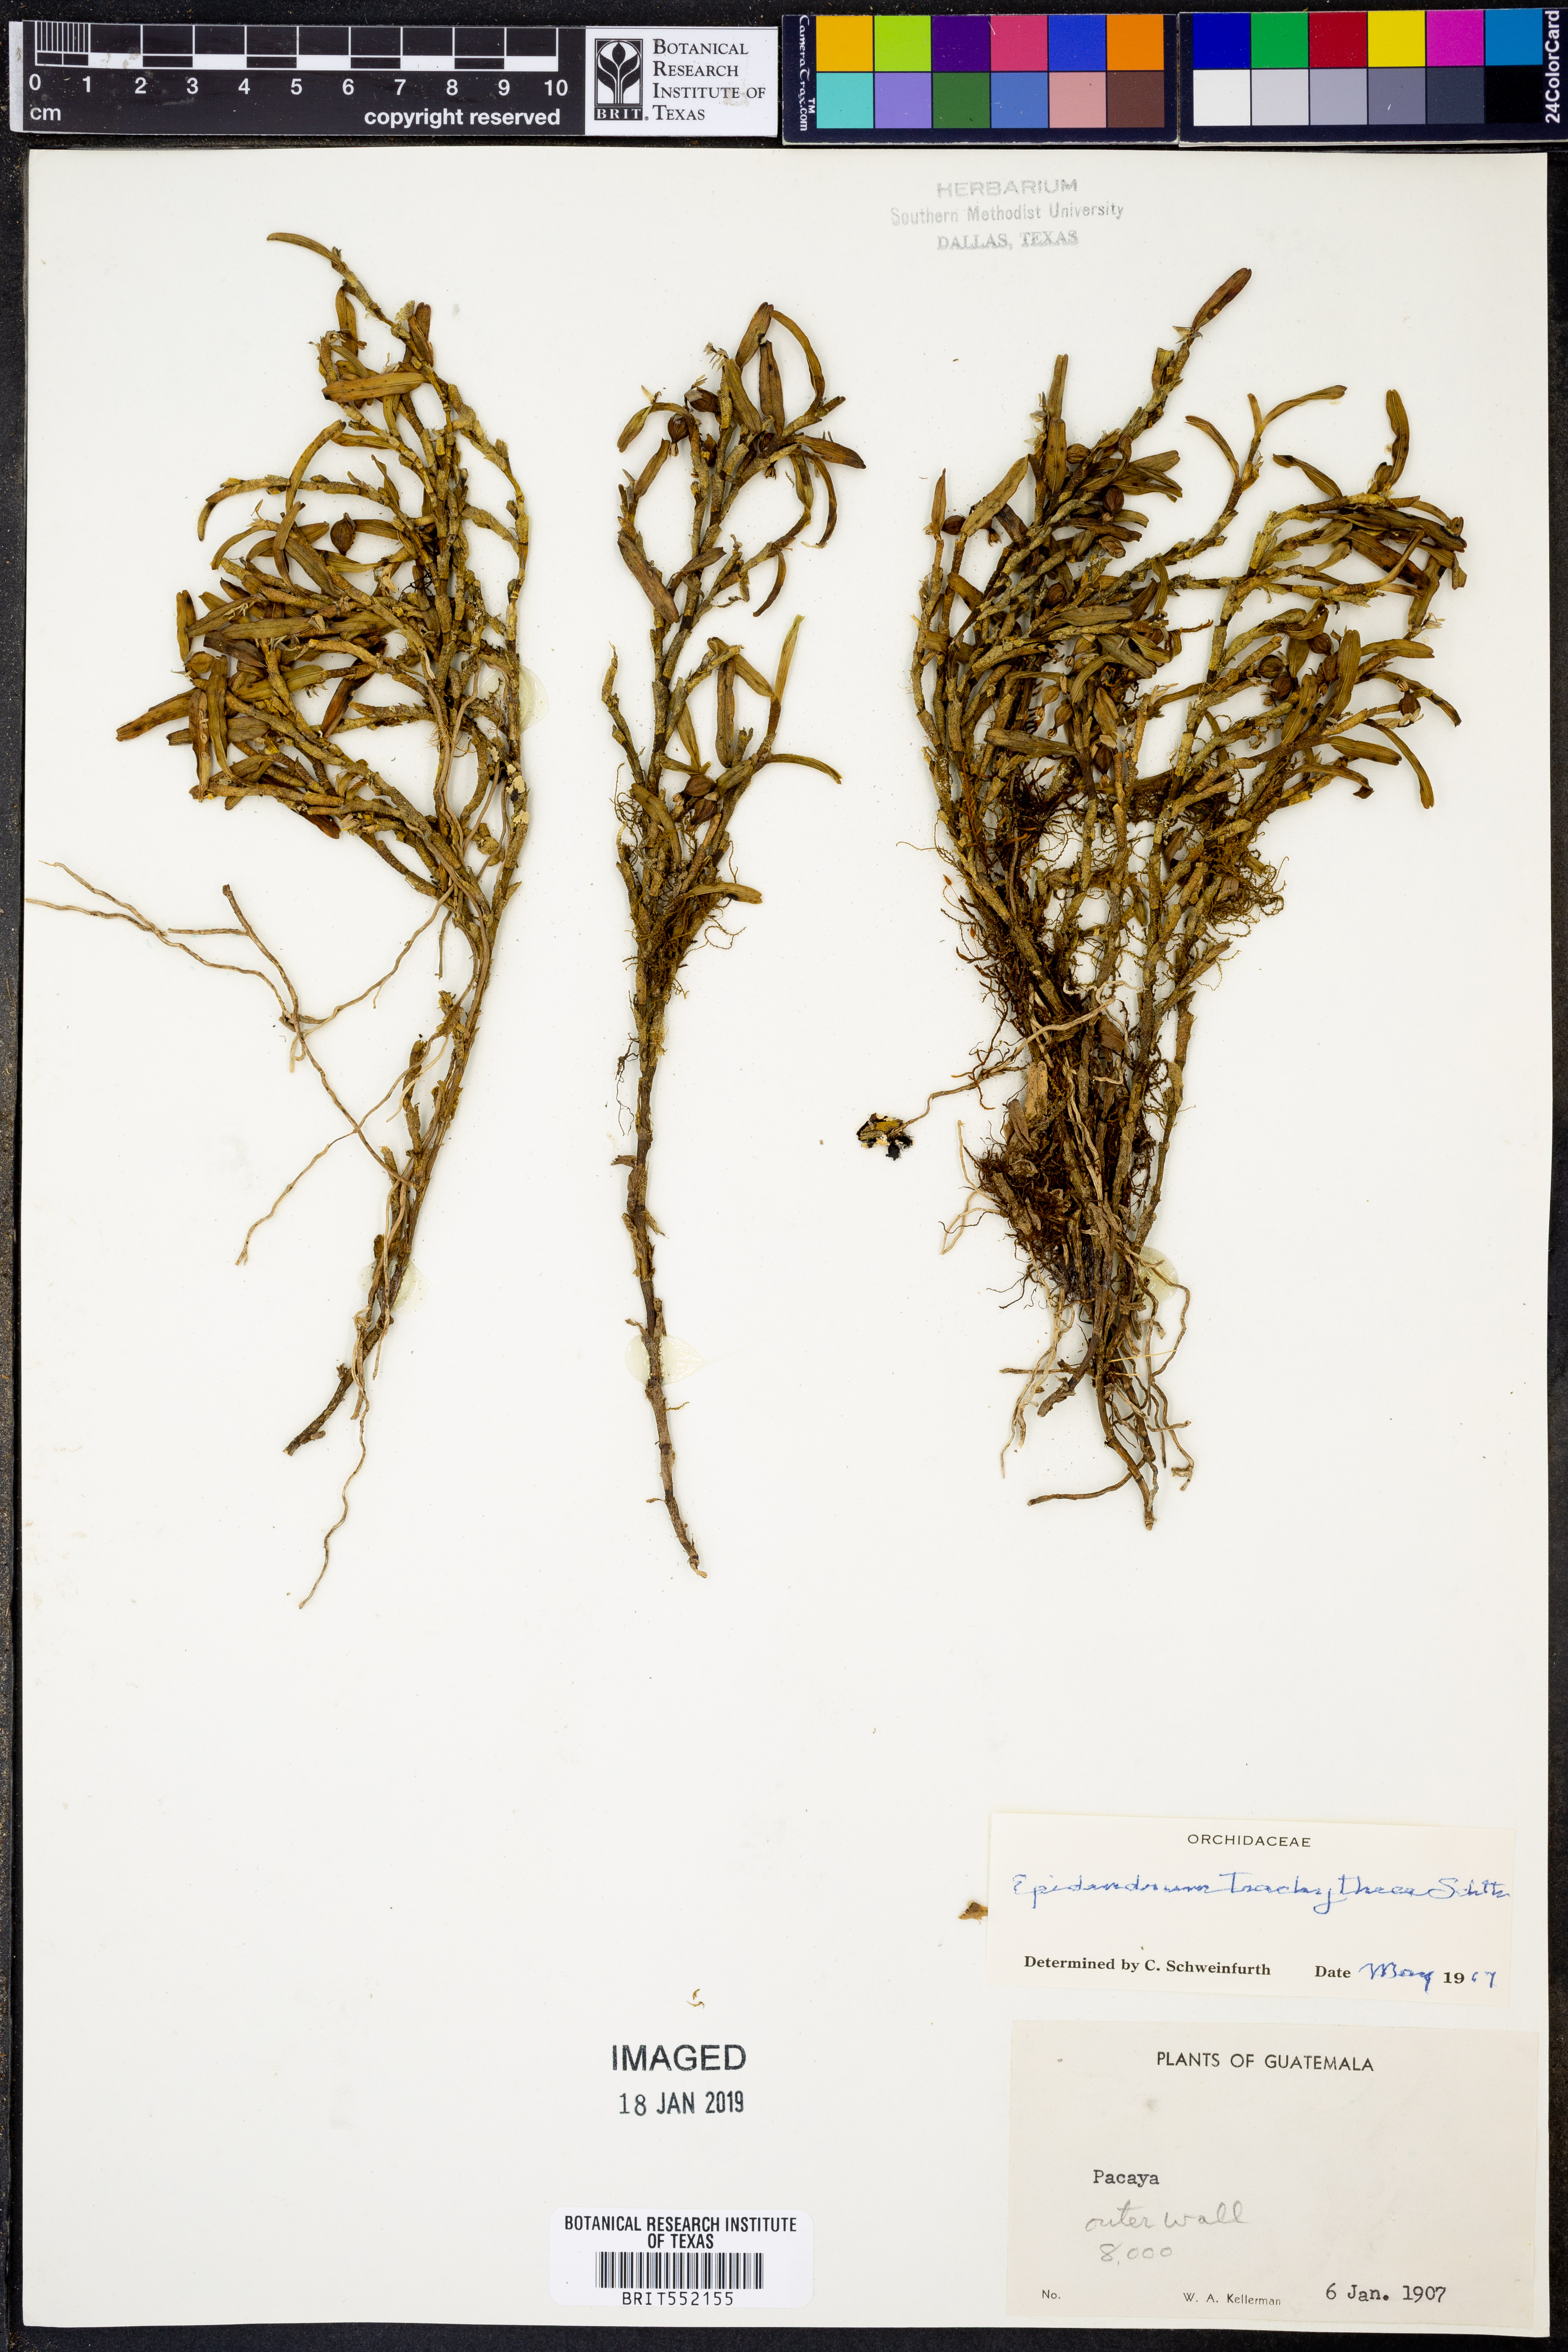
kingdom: Plantae
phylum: Tracheophyta
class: Liliopsida
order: Asparagales
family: Orchidaceae
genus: Epidendrum
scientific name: Epidendrum trachythece
